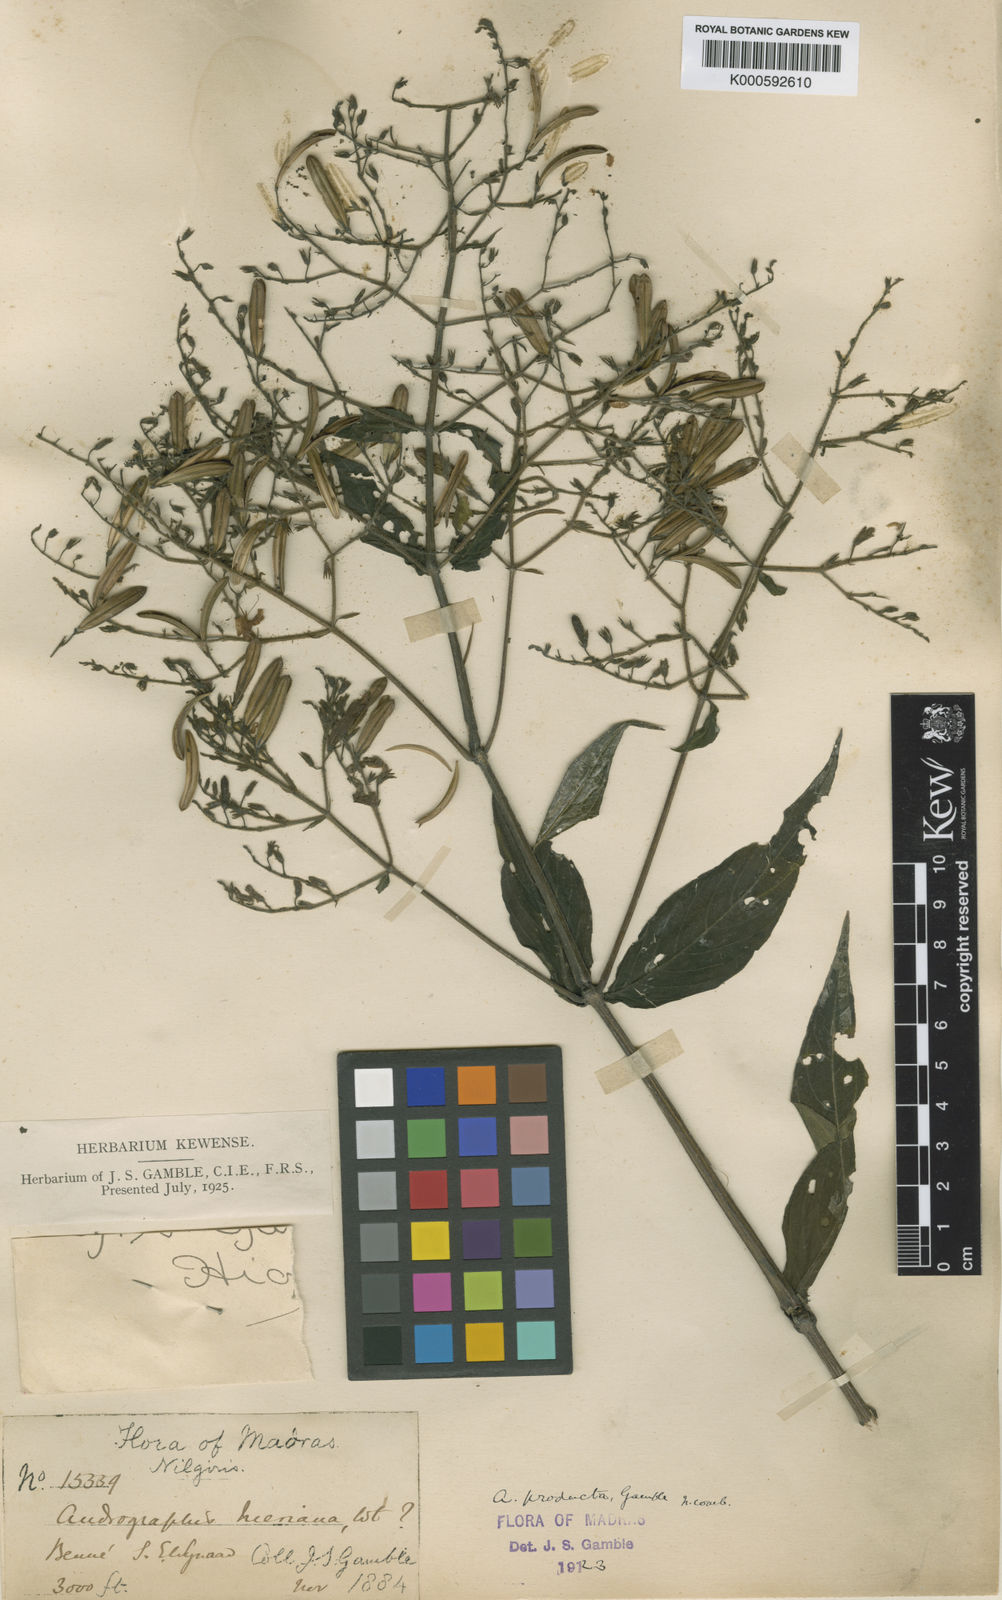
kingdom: Plantae
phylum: Tracheophyta
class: Magnoliopsida
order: Lamiales
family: Acanthaceae
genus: Andrographis
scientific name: Andrographis producta
